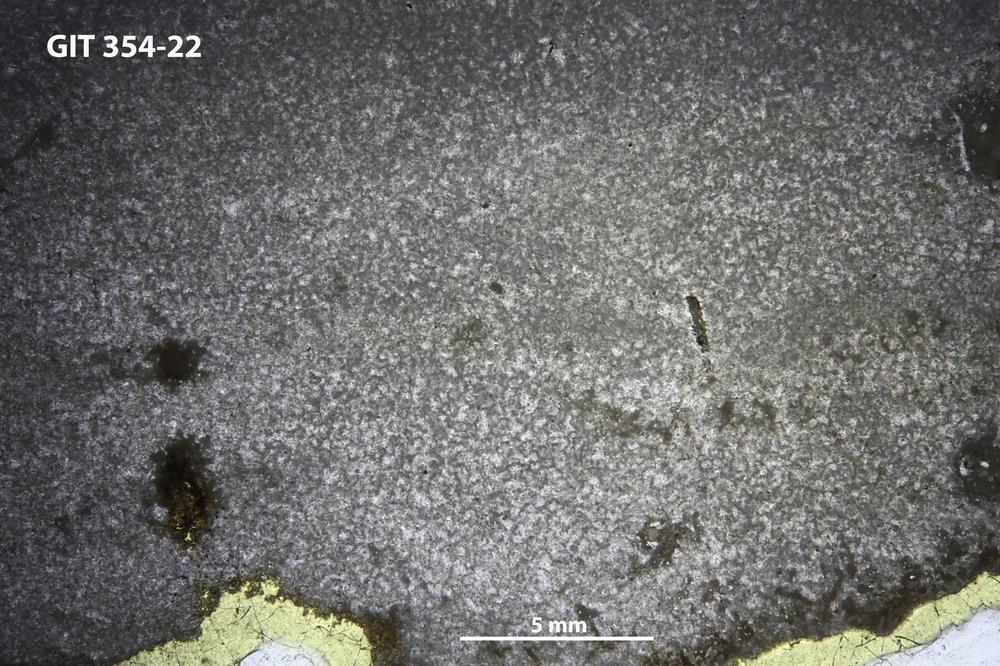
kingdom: Animalia
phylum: Porifera
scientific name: Porifera
